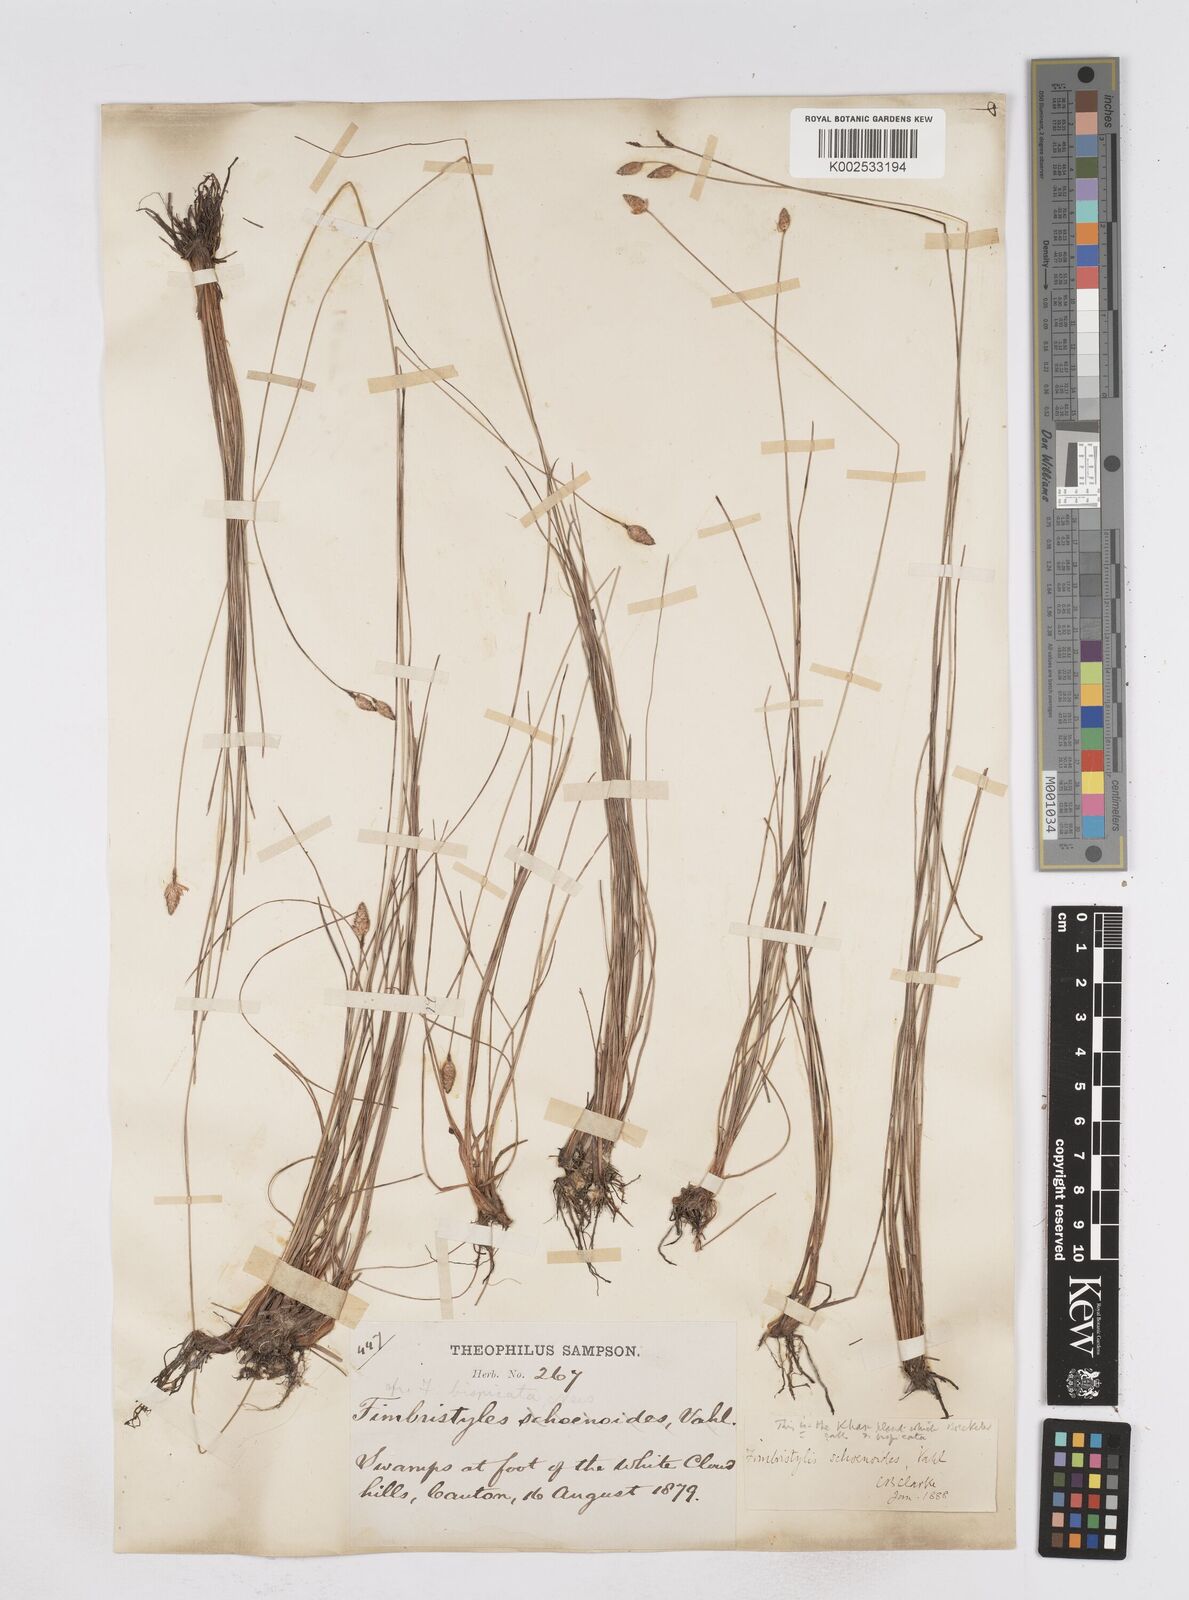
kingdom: Plantae
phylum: Tracheophyta
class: Liliopsida
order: Poales
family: Cyperaceae
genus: Fimbristylis
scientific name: Fimbristylis schoenoides
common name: Ditch fimbry
